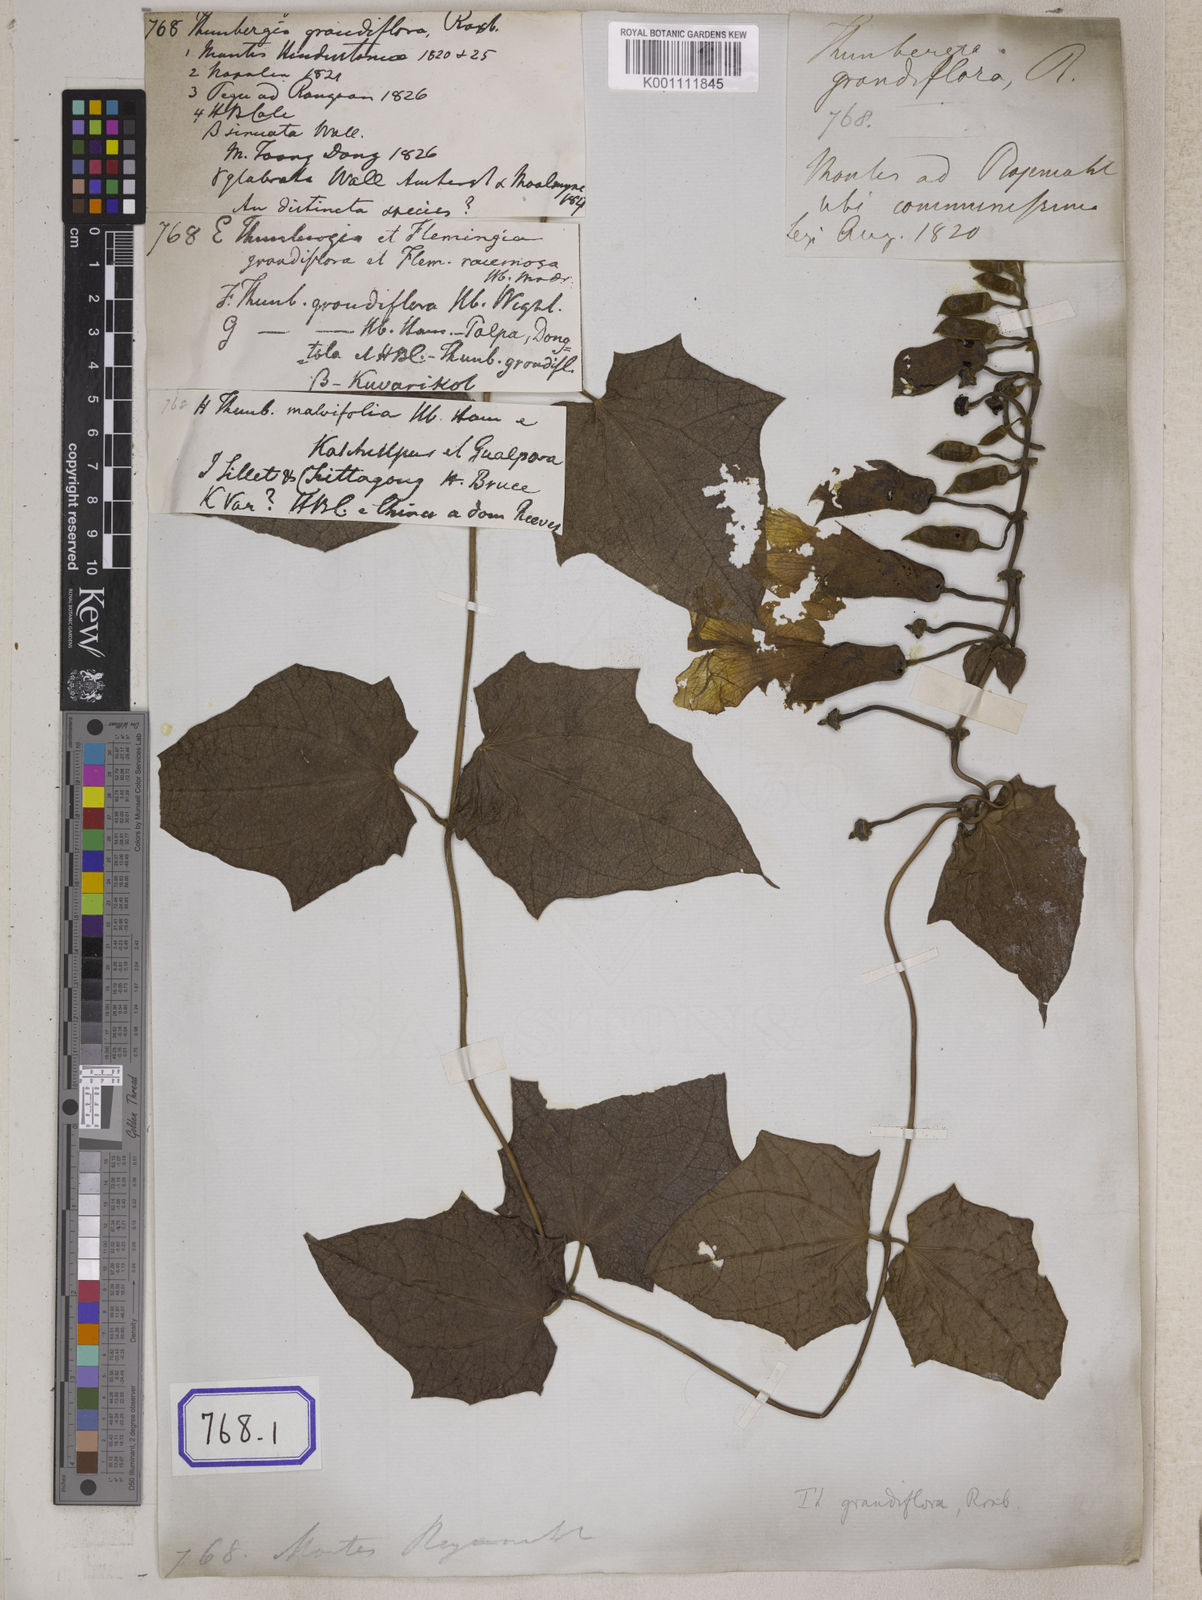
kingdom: Plantae
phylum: Tracheophyta
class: Magnoliopsida
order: Lamiales
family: Acanthaceae
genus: Thunbergia
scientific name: Thunbergia grandiflora
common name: Bengal trumpet
